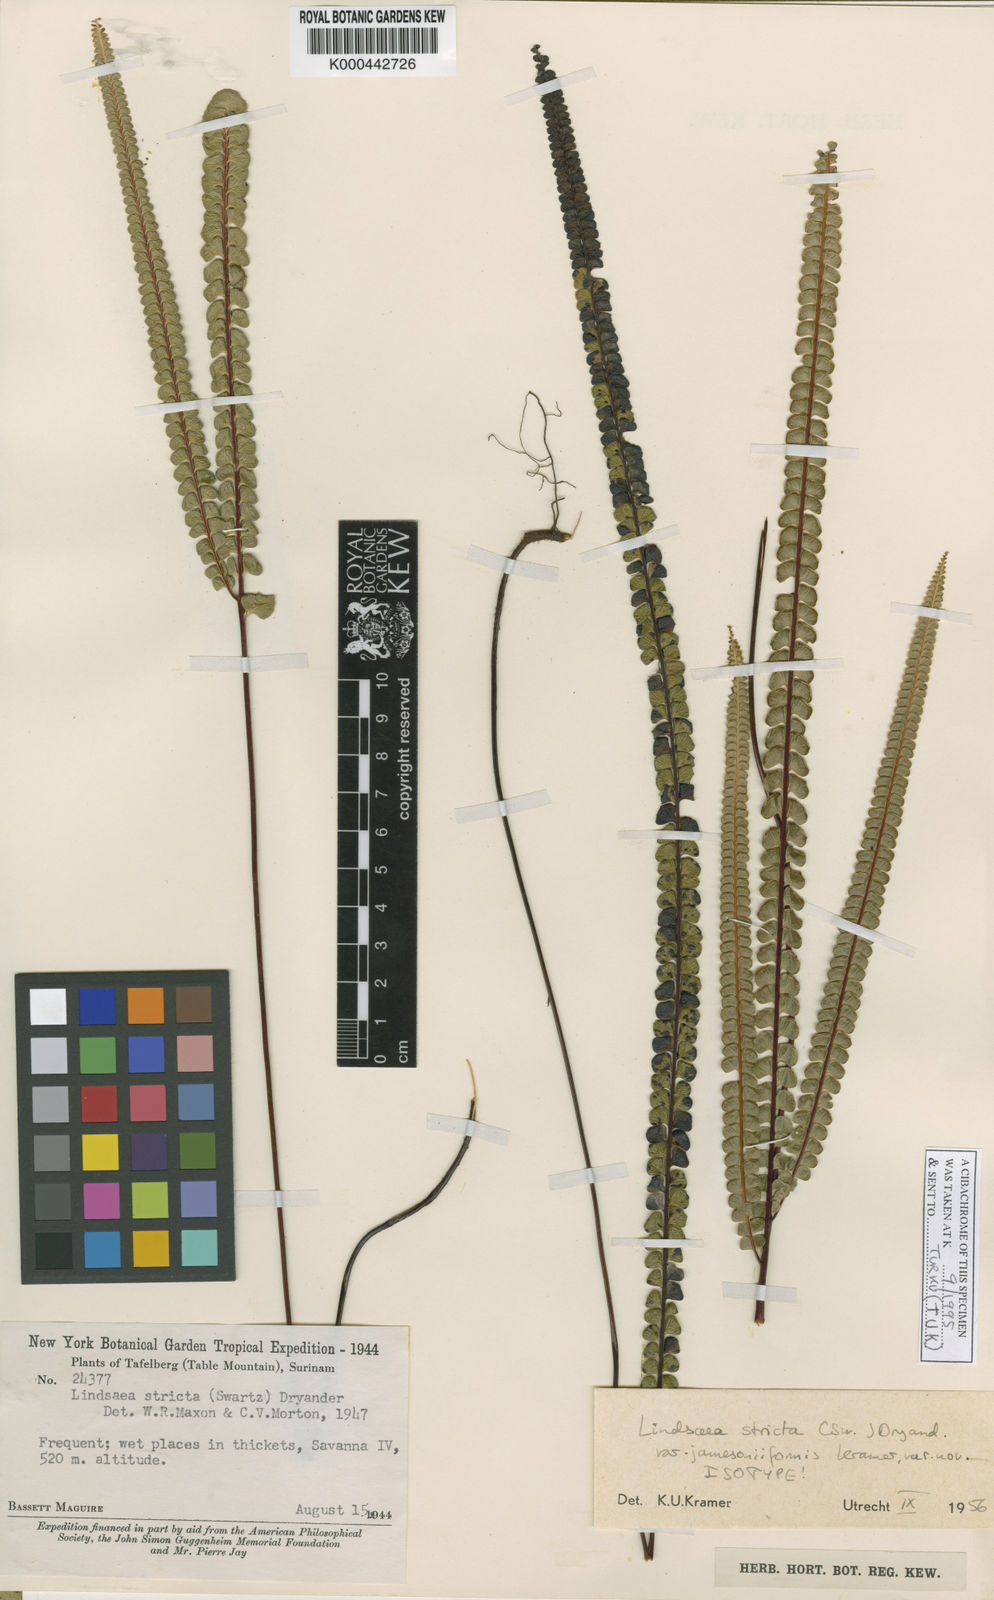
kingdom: Plantae
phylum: Tracheophyta
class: Polypodiopsida
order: Polypodiales
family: Lindsaeaceae
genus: Lindsaea
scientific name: Lindsaea jamesoniiformis
